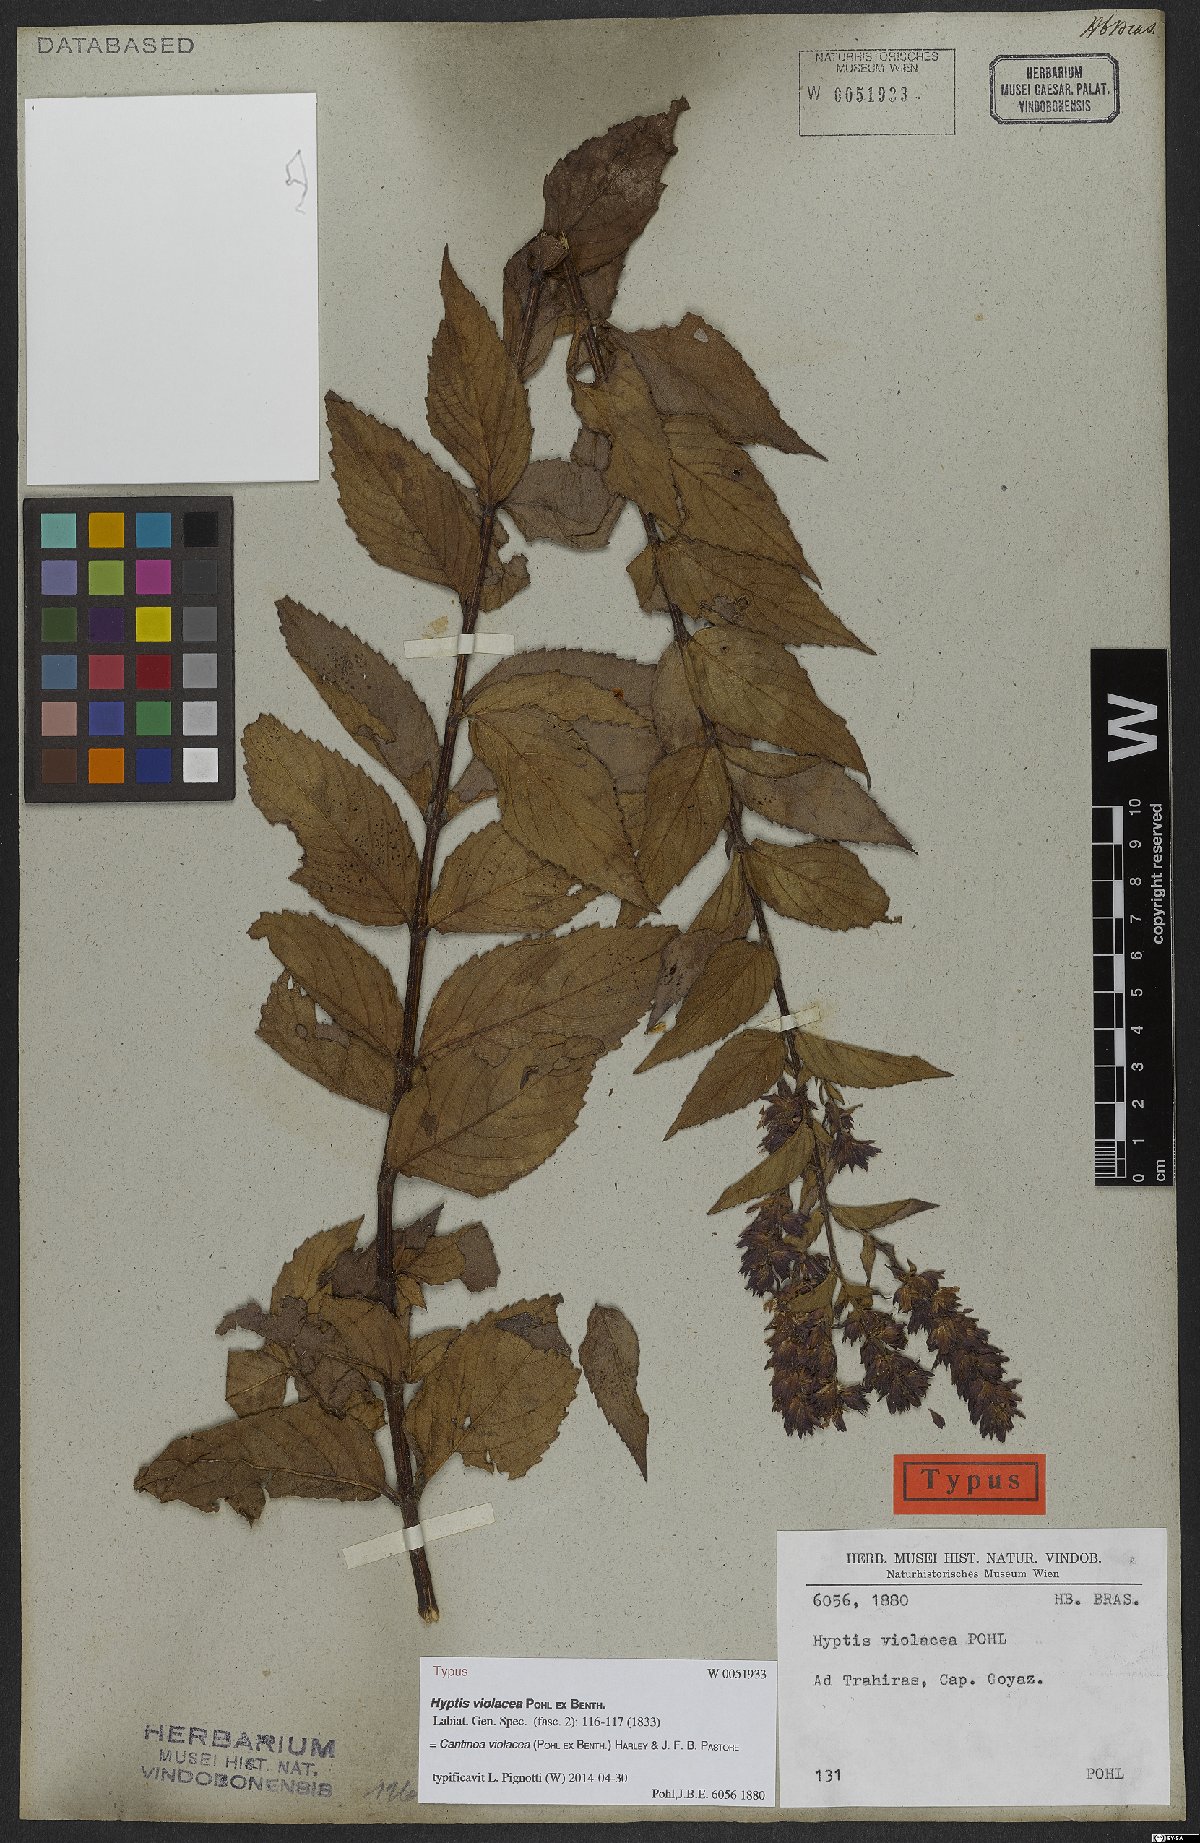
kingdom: Plantae
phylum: Tracheophyta
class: Magnoliopsida
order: Lamiales
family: Lamiaceae
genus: Cantinoa
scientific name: Cantinoa violacea
